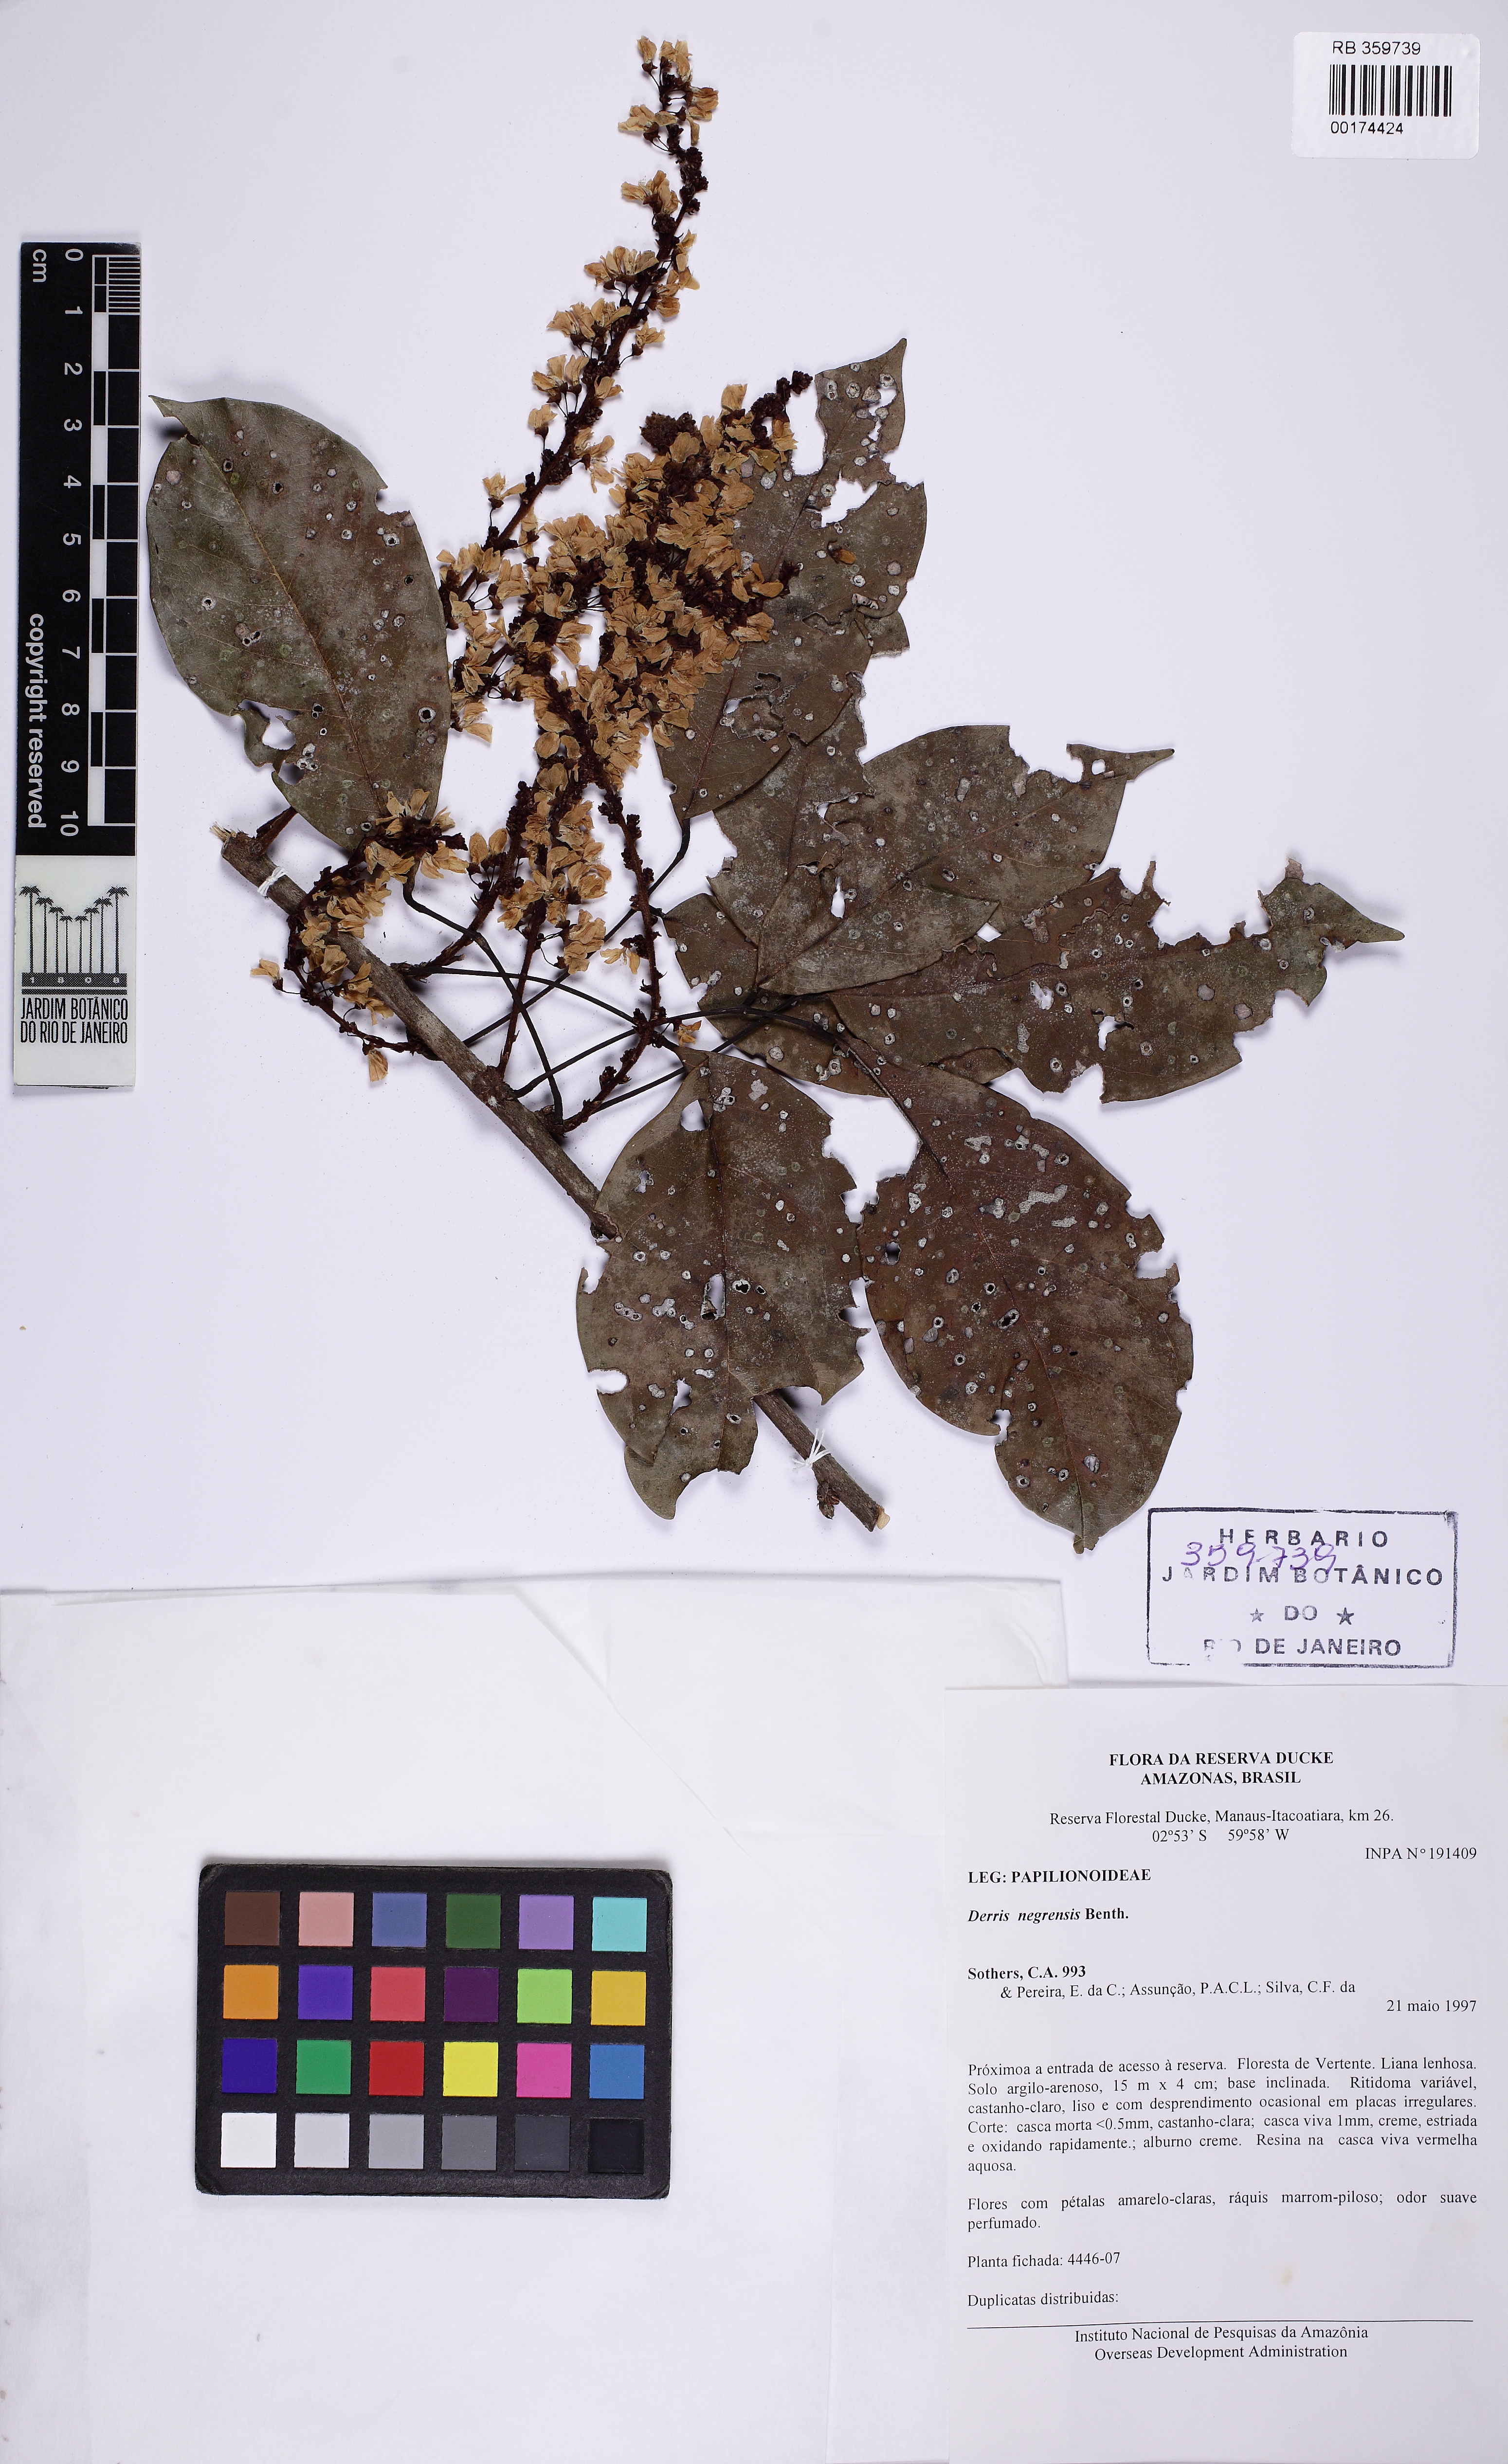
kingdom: Plantae
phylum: Tracheophyta
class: Magnoliopsida
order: Fabales
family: Fabaceae
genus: Deguelia
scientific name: Deguelia negrensis
